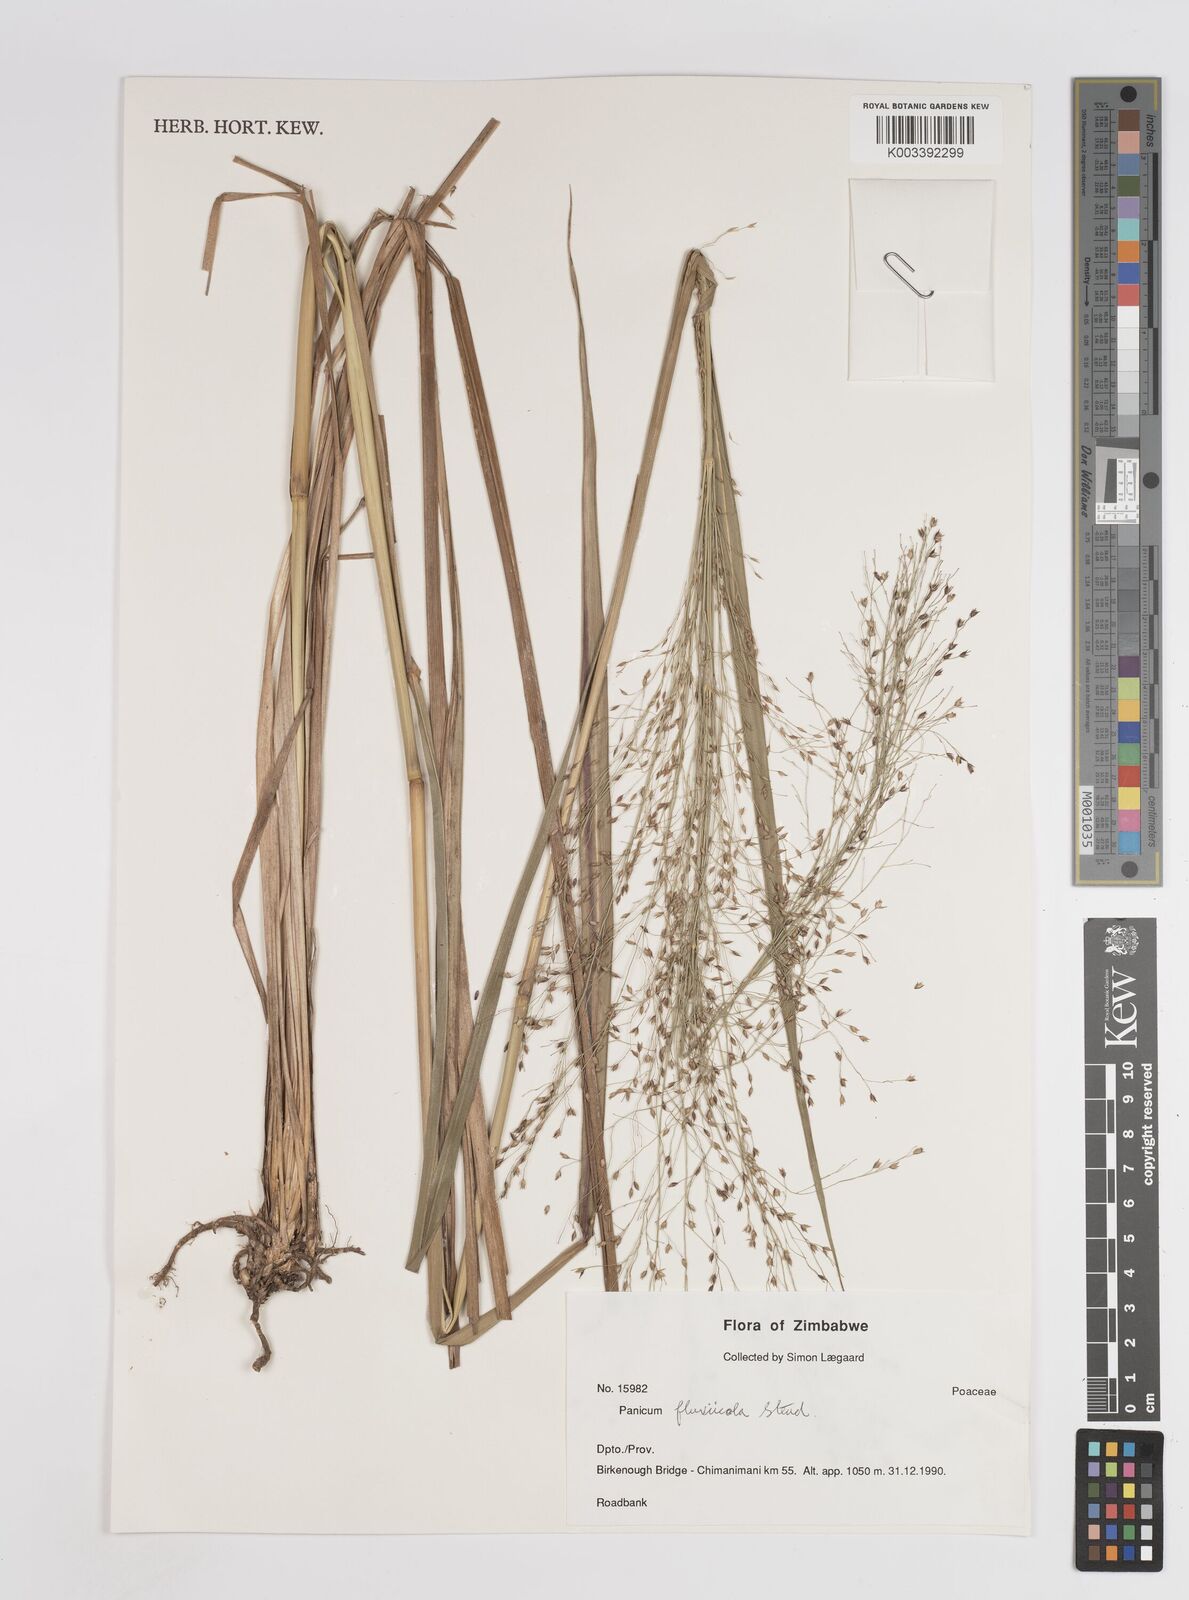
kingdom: Plantae
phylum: Tracheophyta
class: Liliopsida
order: Poales
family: Poaceae
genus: Panicum
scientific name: Panicum fluviicola
